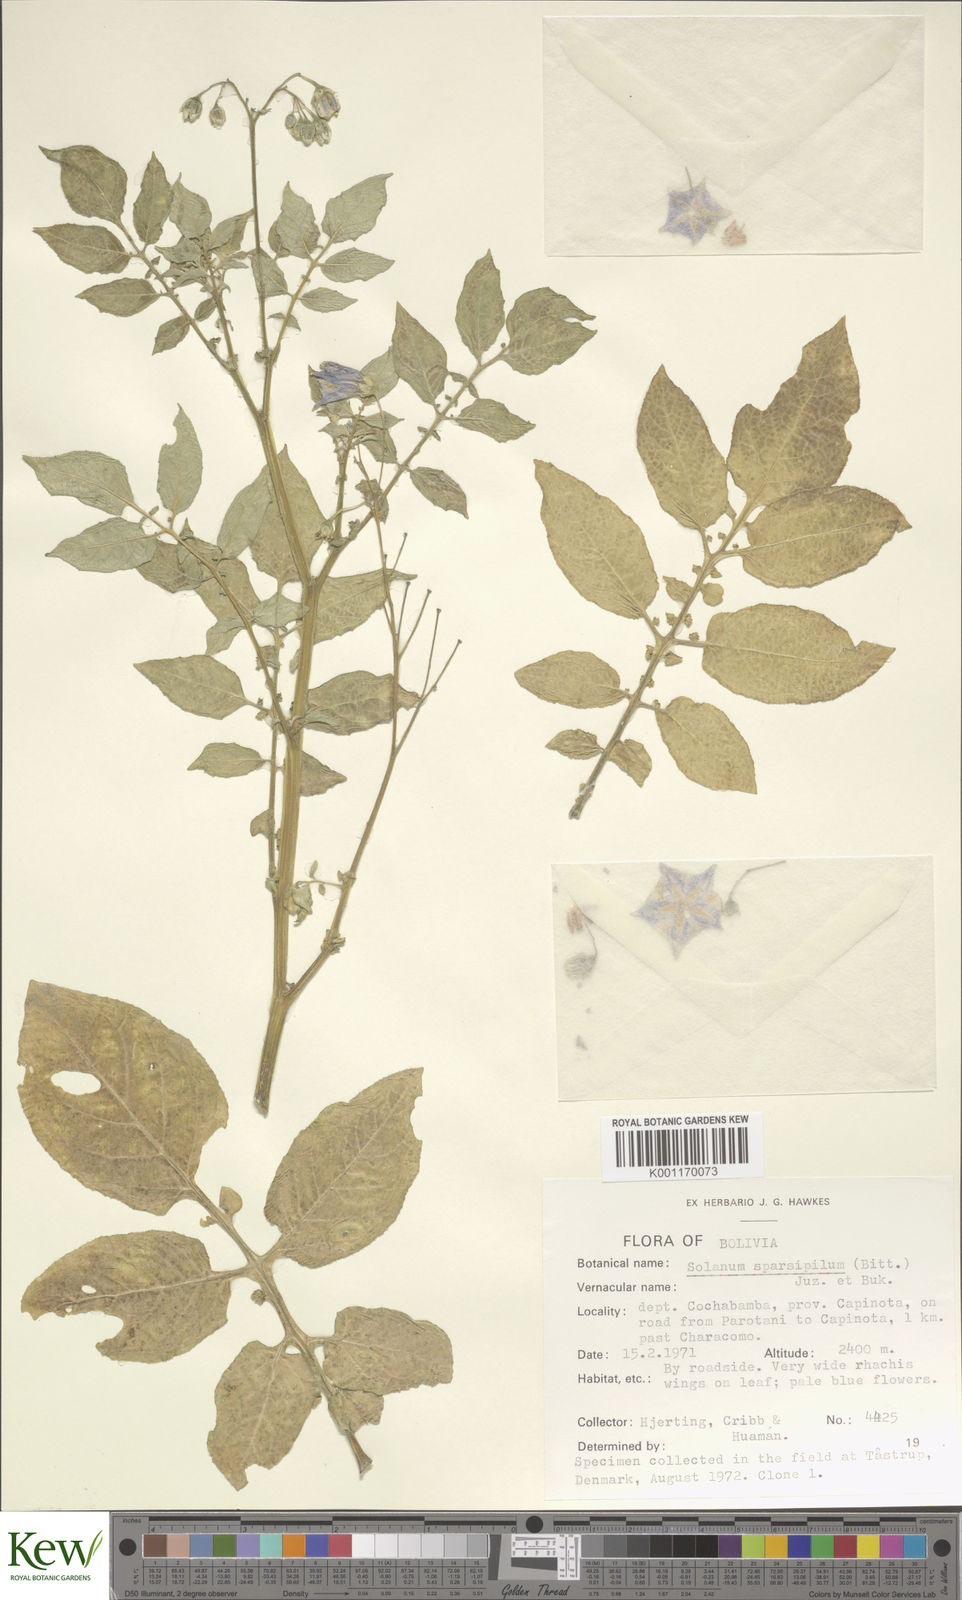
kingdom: Plantae
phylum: Tracheophyta
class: Magnoliopsida
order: Solanales
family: Solanaceae
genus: Solanum
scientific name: Solanum brevicaule
